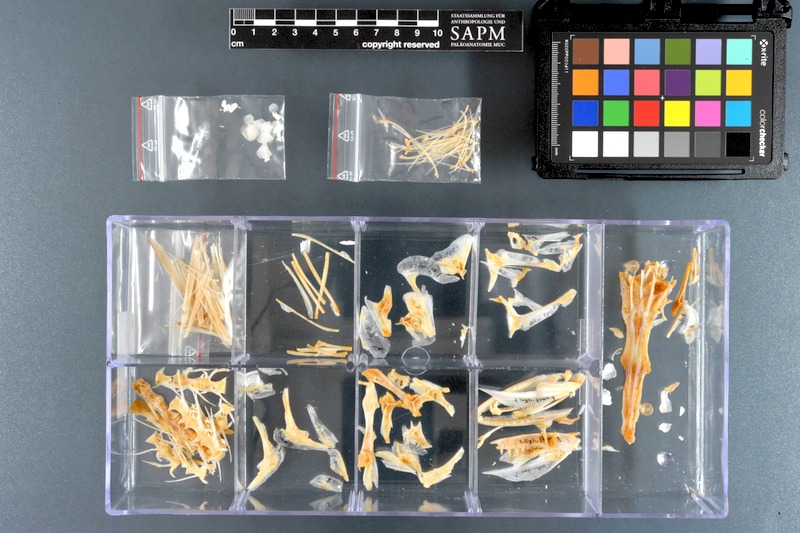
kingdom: Animalia
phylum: Chordata
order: Perciformes
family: Sphyraenidae
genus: Sphyraena
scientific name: Sphyraena flavicauda
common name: Yellowtail barracuda
